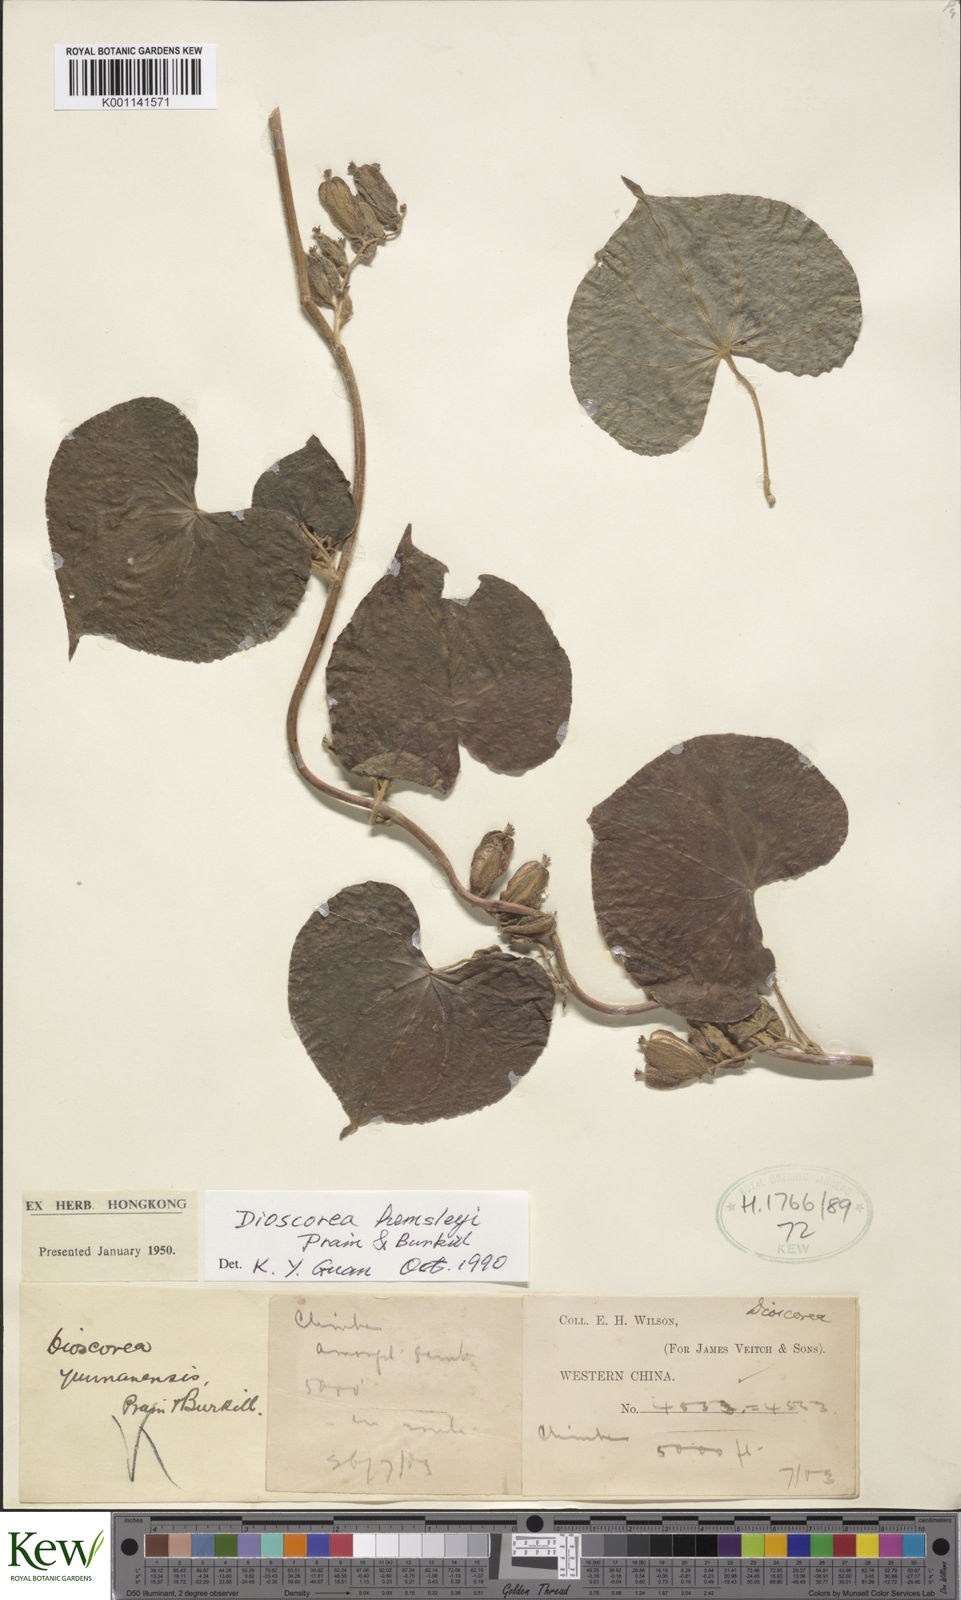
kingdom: Plantae
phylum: Tracheophyta
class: Liliopsida
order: Dioscoreales
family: Dioscoreaceae
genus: Dioscorea
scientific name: Dioscorea hemsleyi
